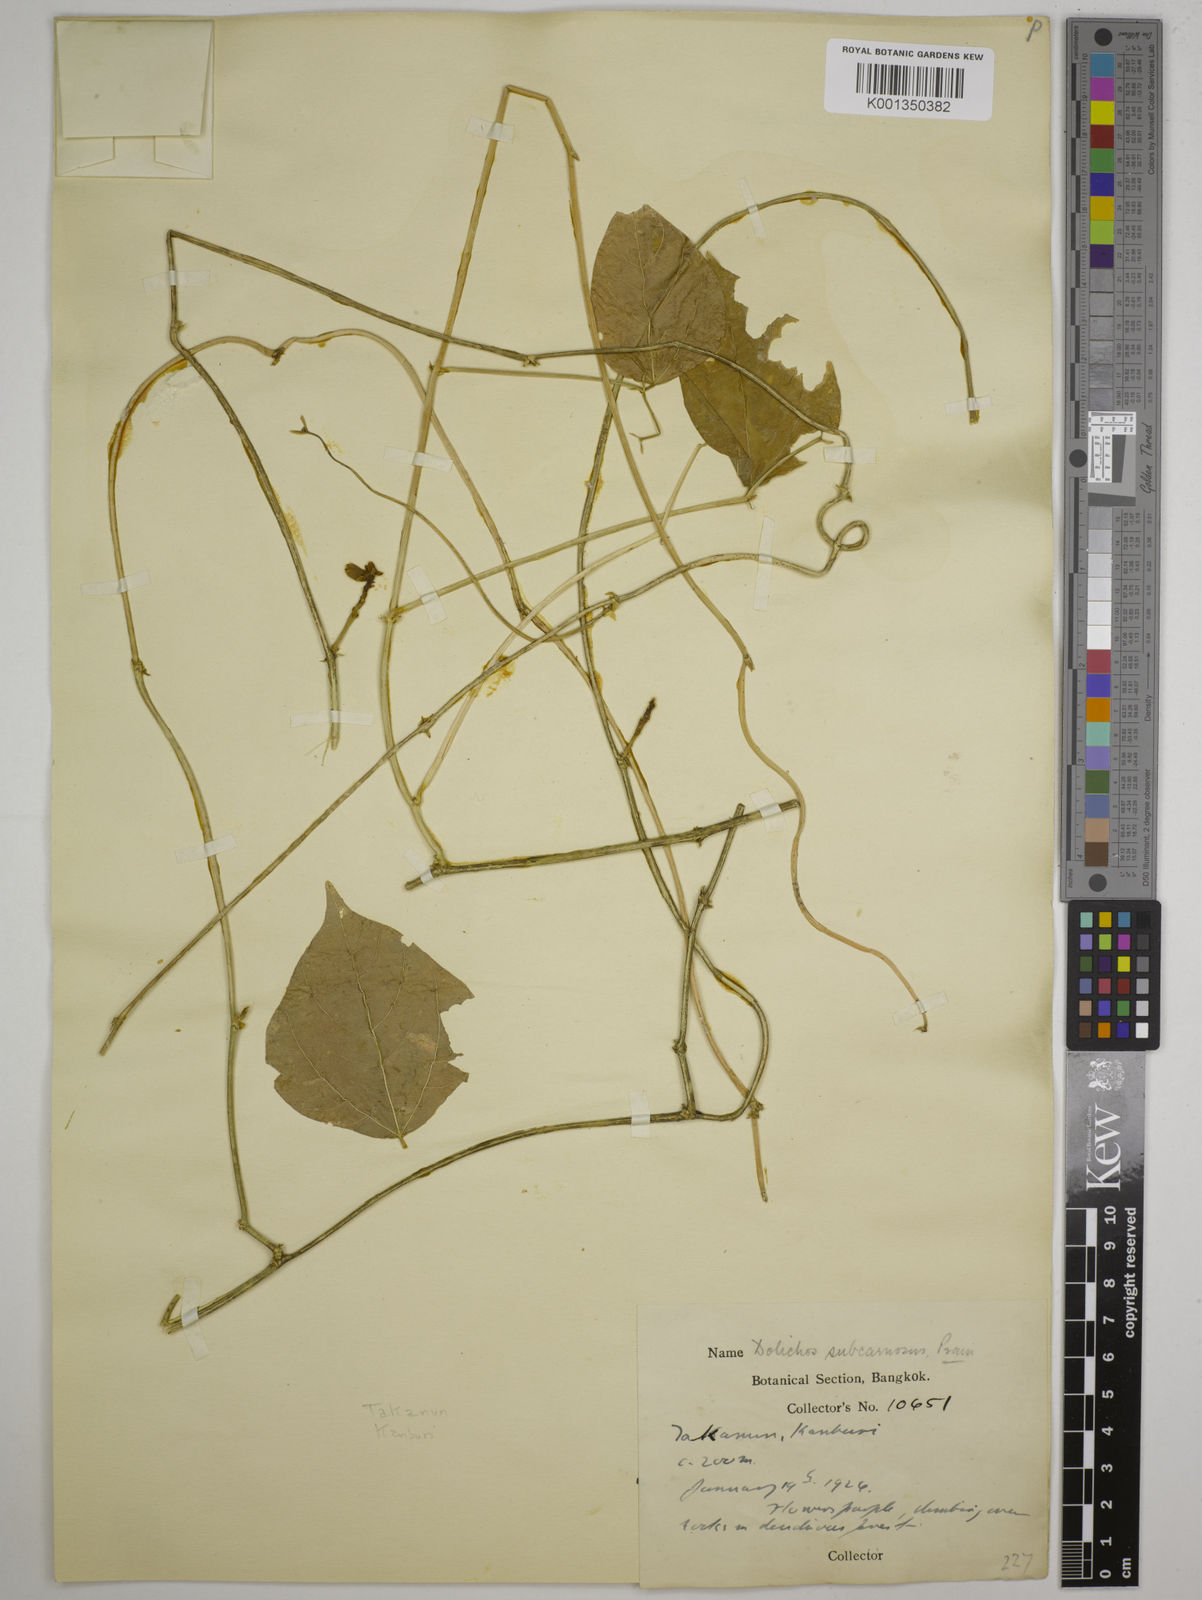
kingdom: Plantae
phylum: Tracheophyta
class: Magnoliopsida
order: Fabales
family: Fabaceae
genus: Dolichos
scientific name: Dolichos junghuhnianus
